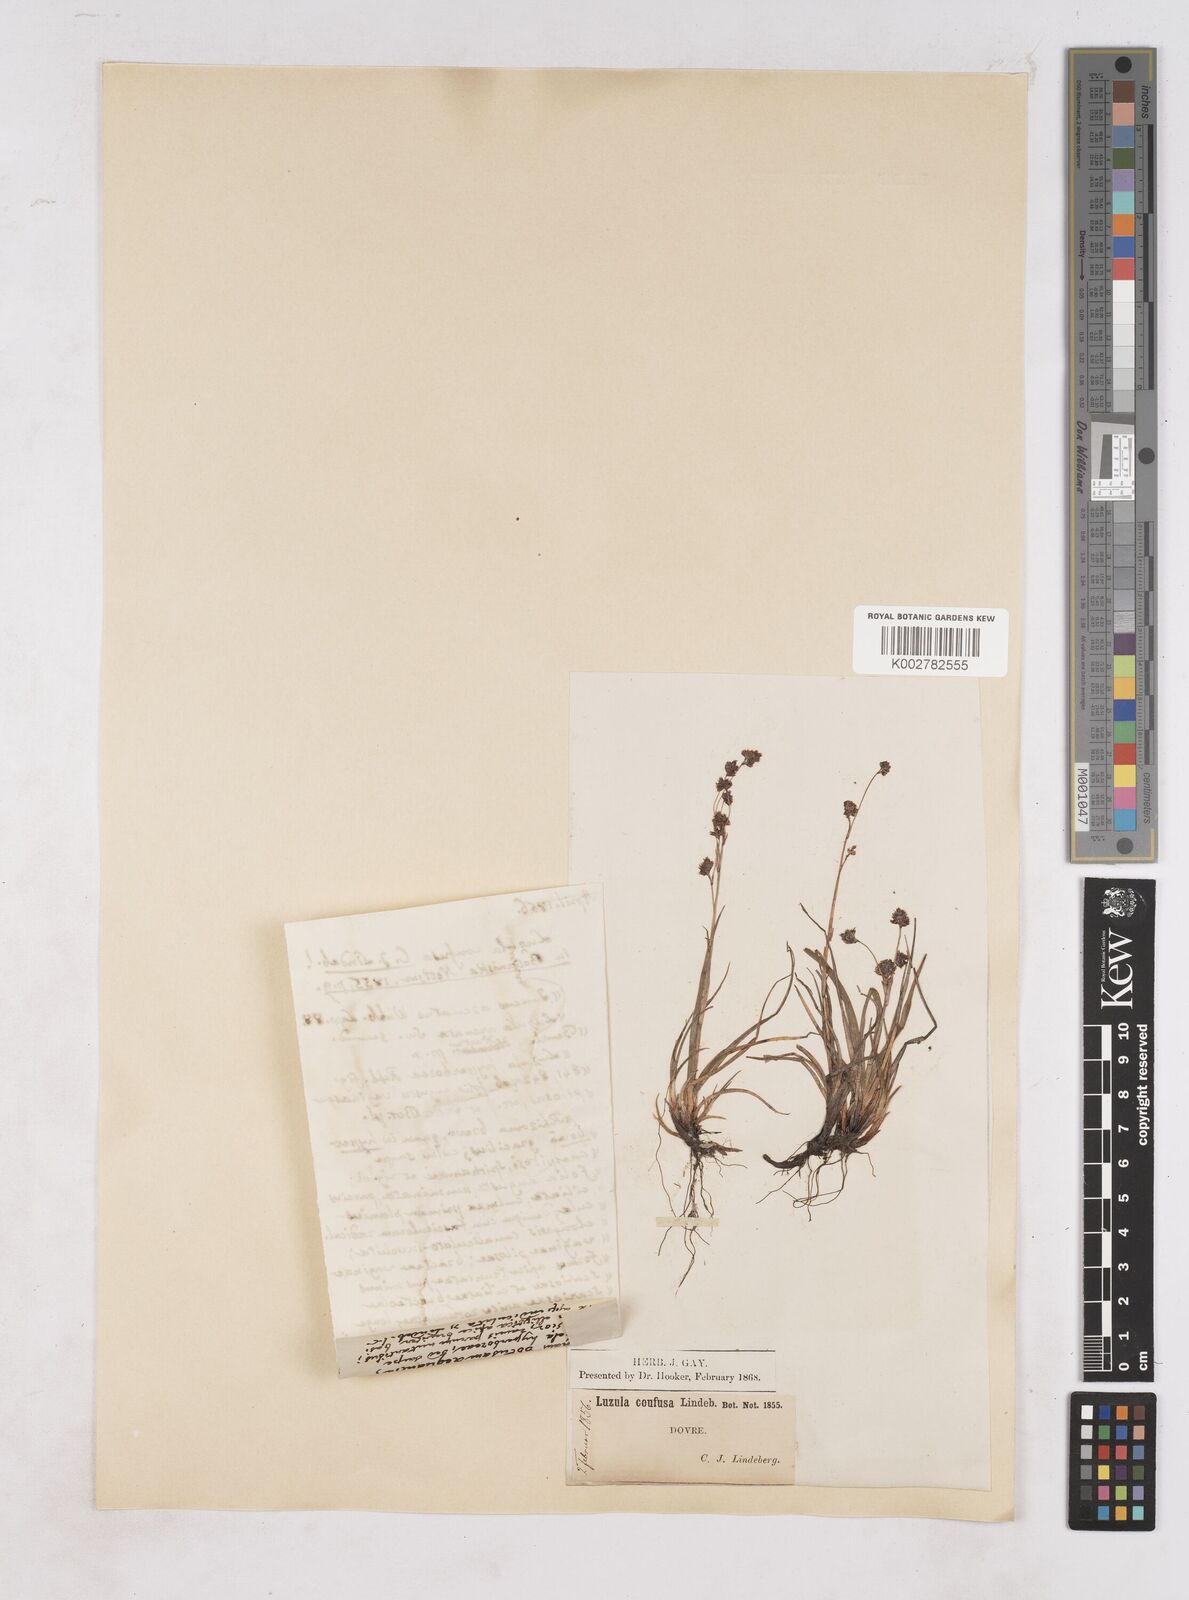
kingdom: Plantae
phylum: Tracheophyta
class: Liliopsida
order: Poales
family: Juncaceae
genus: Luzula
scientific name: Luzula confusa
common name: Northern wood rush
